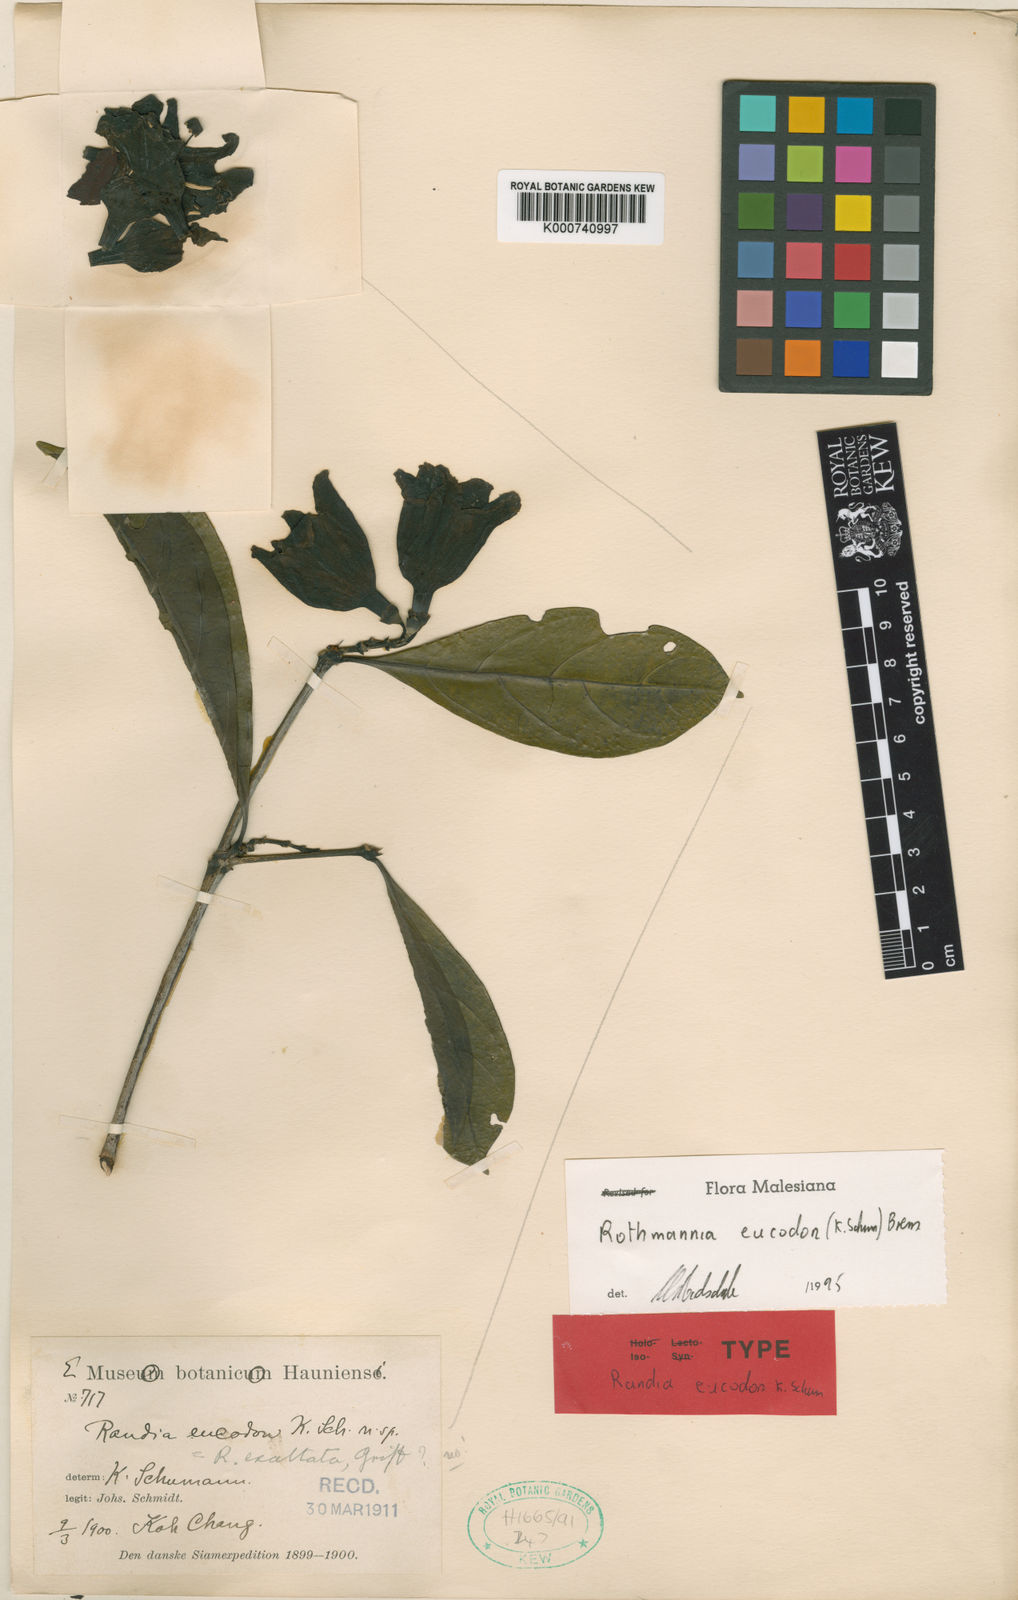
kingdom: Plantae
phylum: Tracheophyta
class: Magnoliopsida
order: Gentianales
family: Rubiaceae
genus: Ridsdalea
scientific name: Ridsdalea eucodon
